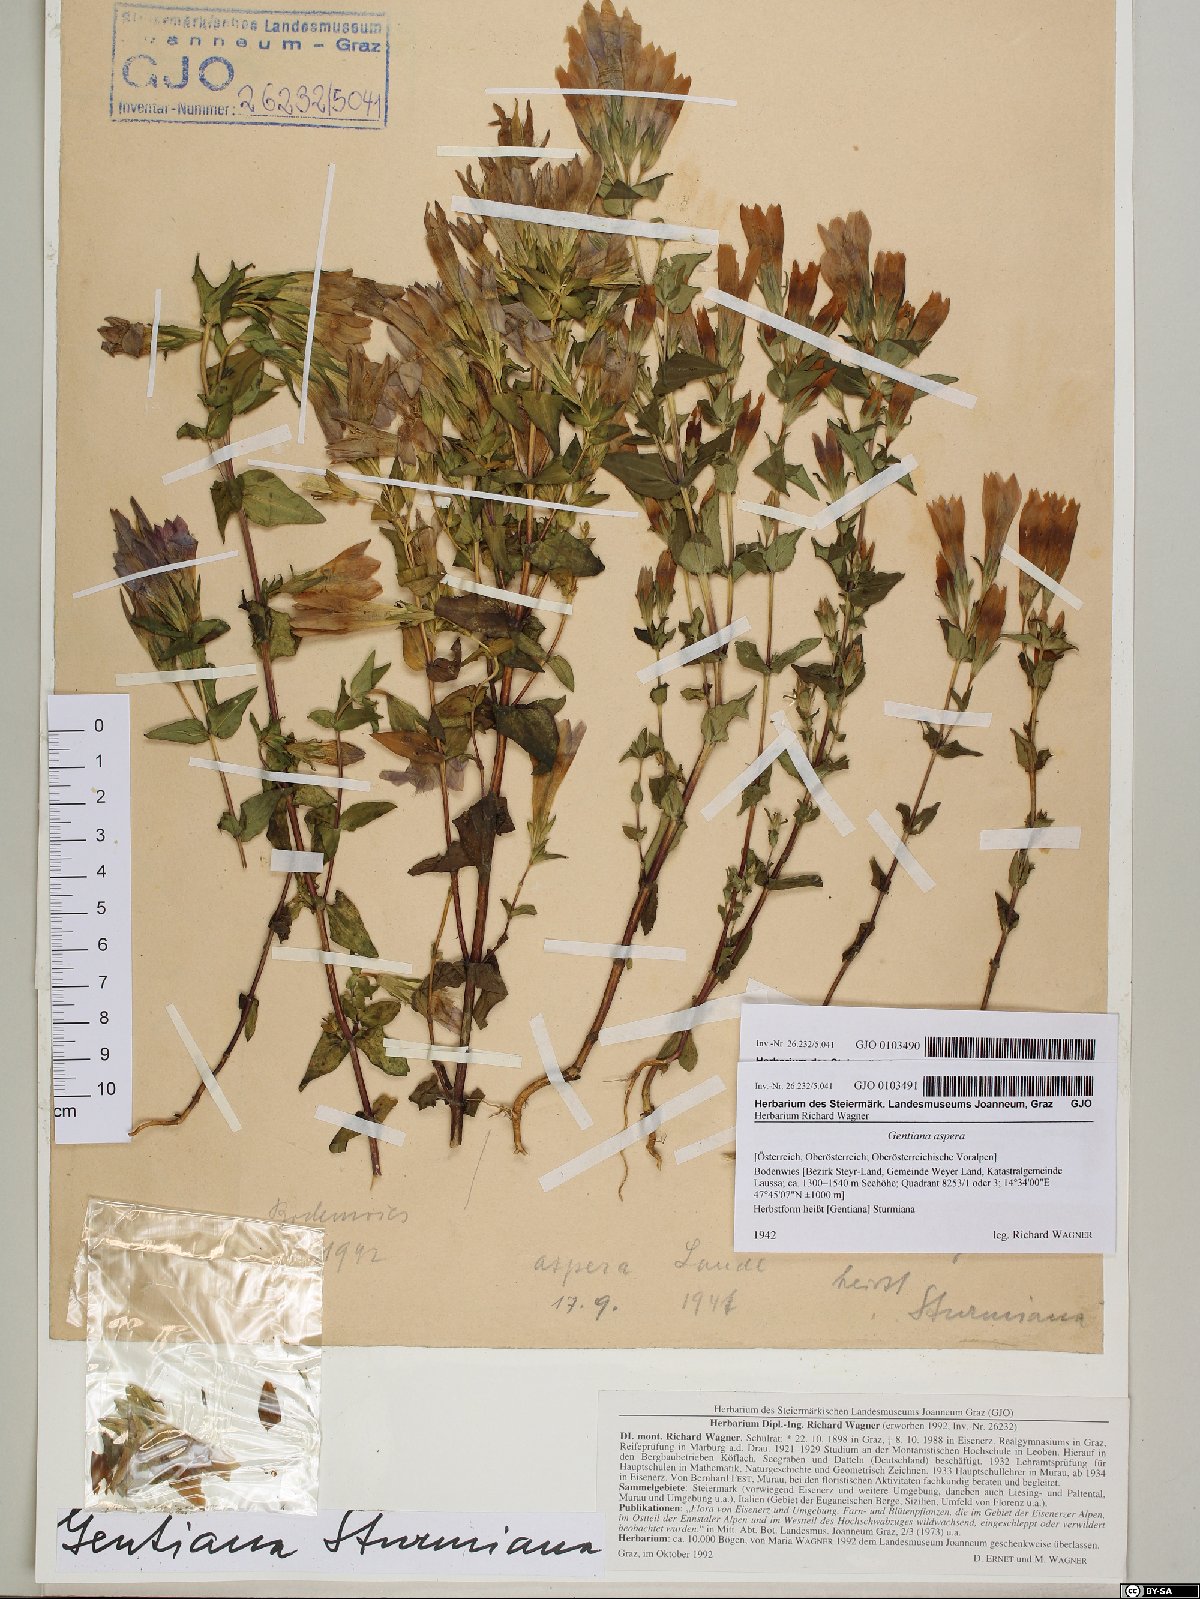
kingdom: Plantae
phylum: Tracheophyta
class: Magnoliopsida
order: Gentianales
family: Gentianaceae
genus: Gentianella
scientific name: Gentianella obtusifolia
